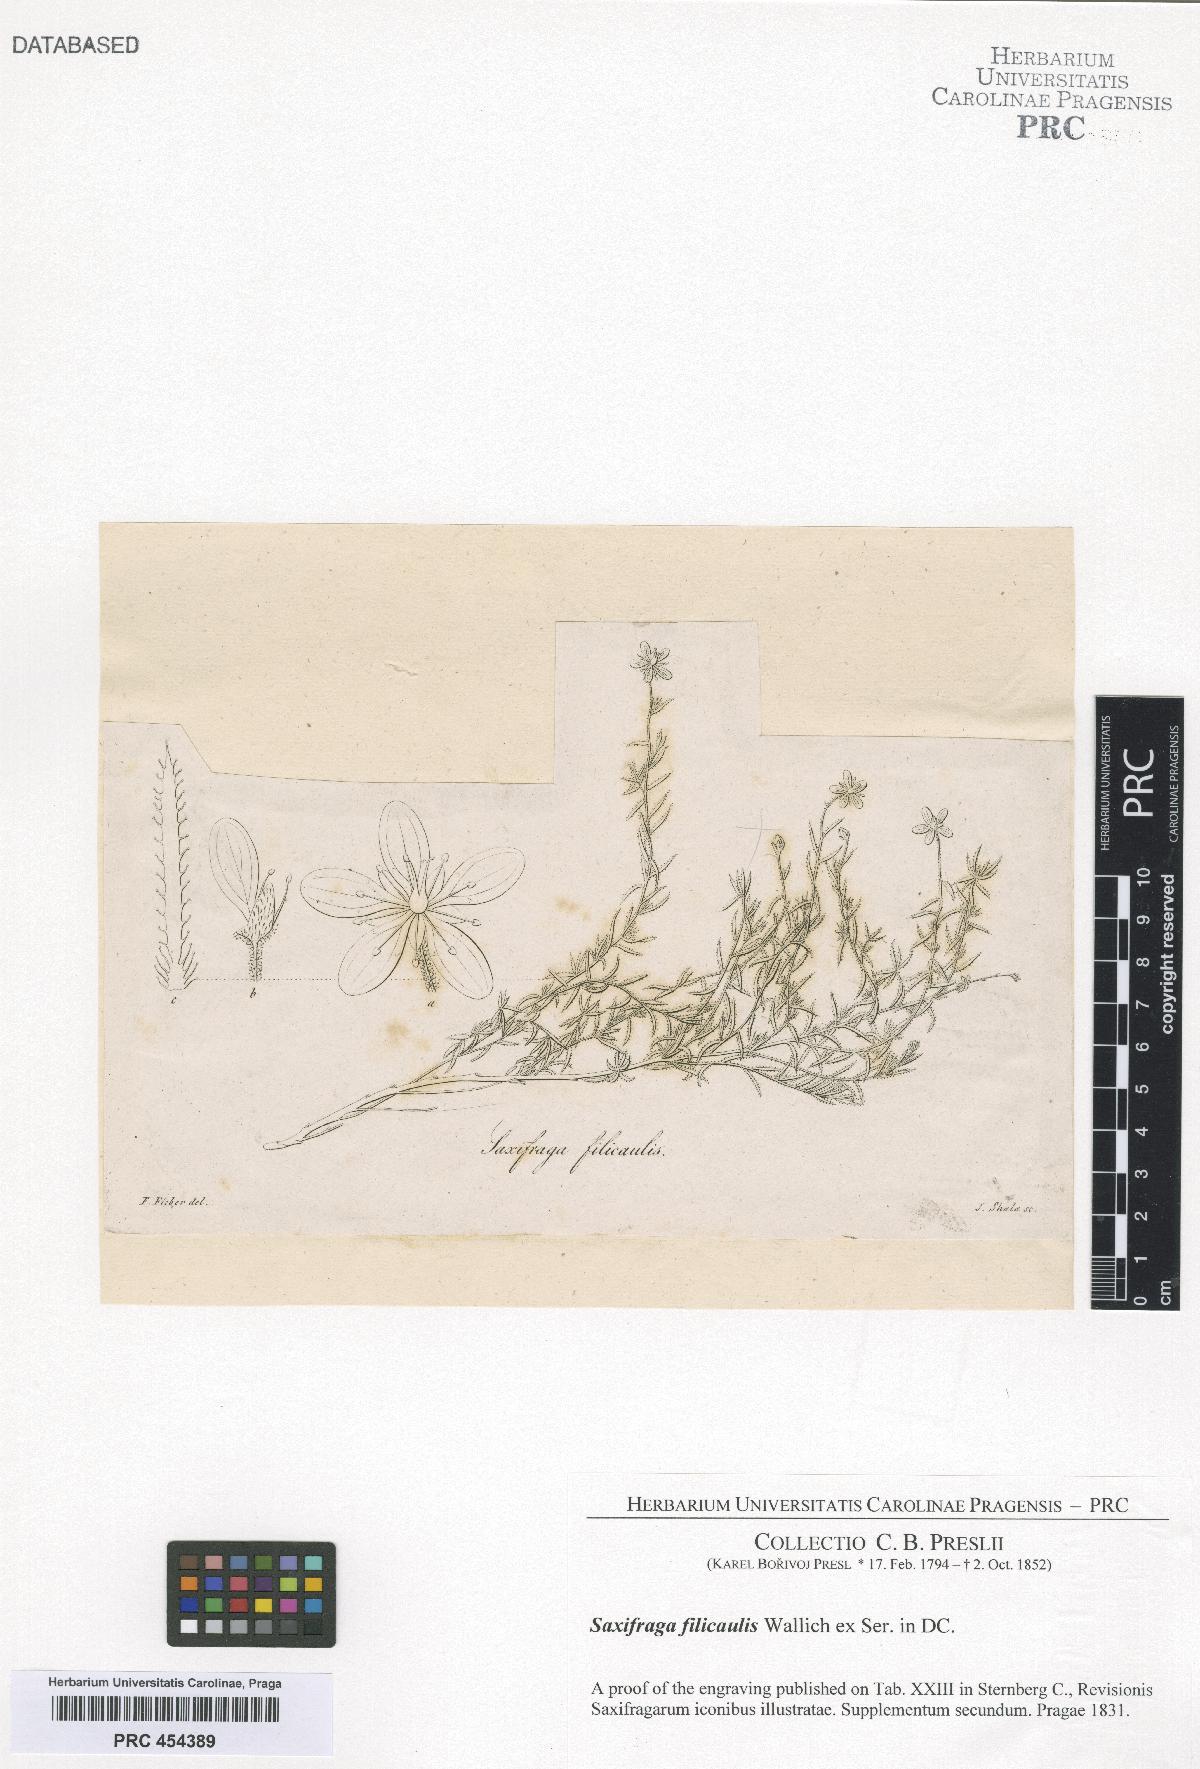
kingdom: Plantae
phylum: Tracheophyta
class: Magnoliopsida
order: Saxifragales
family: Saxifragaceae
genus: Saxifraga
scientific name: Saxifraga filicaulis
